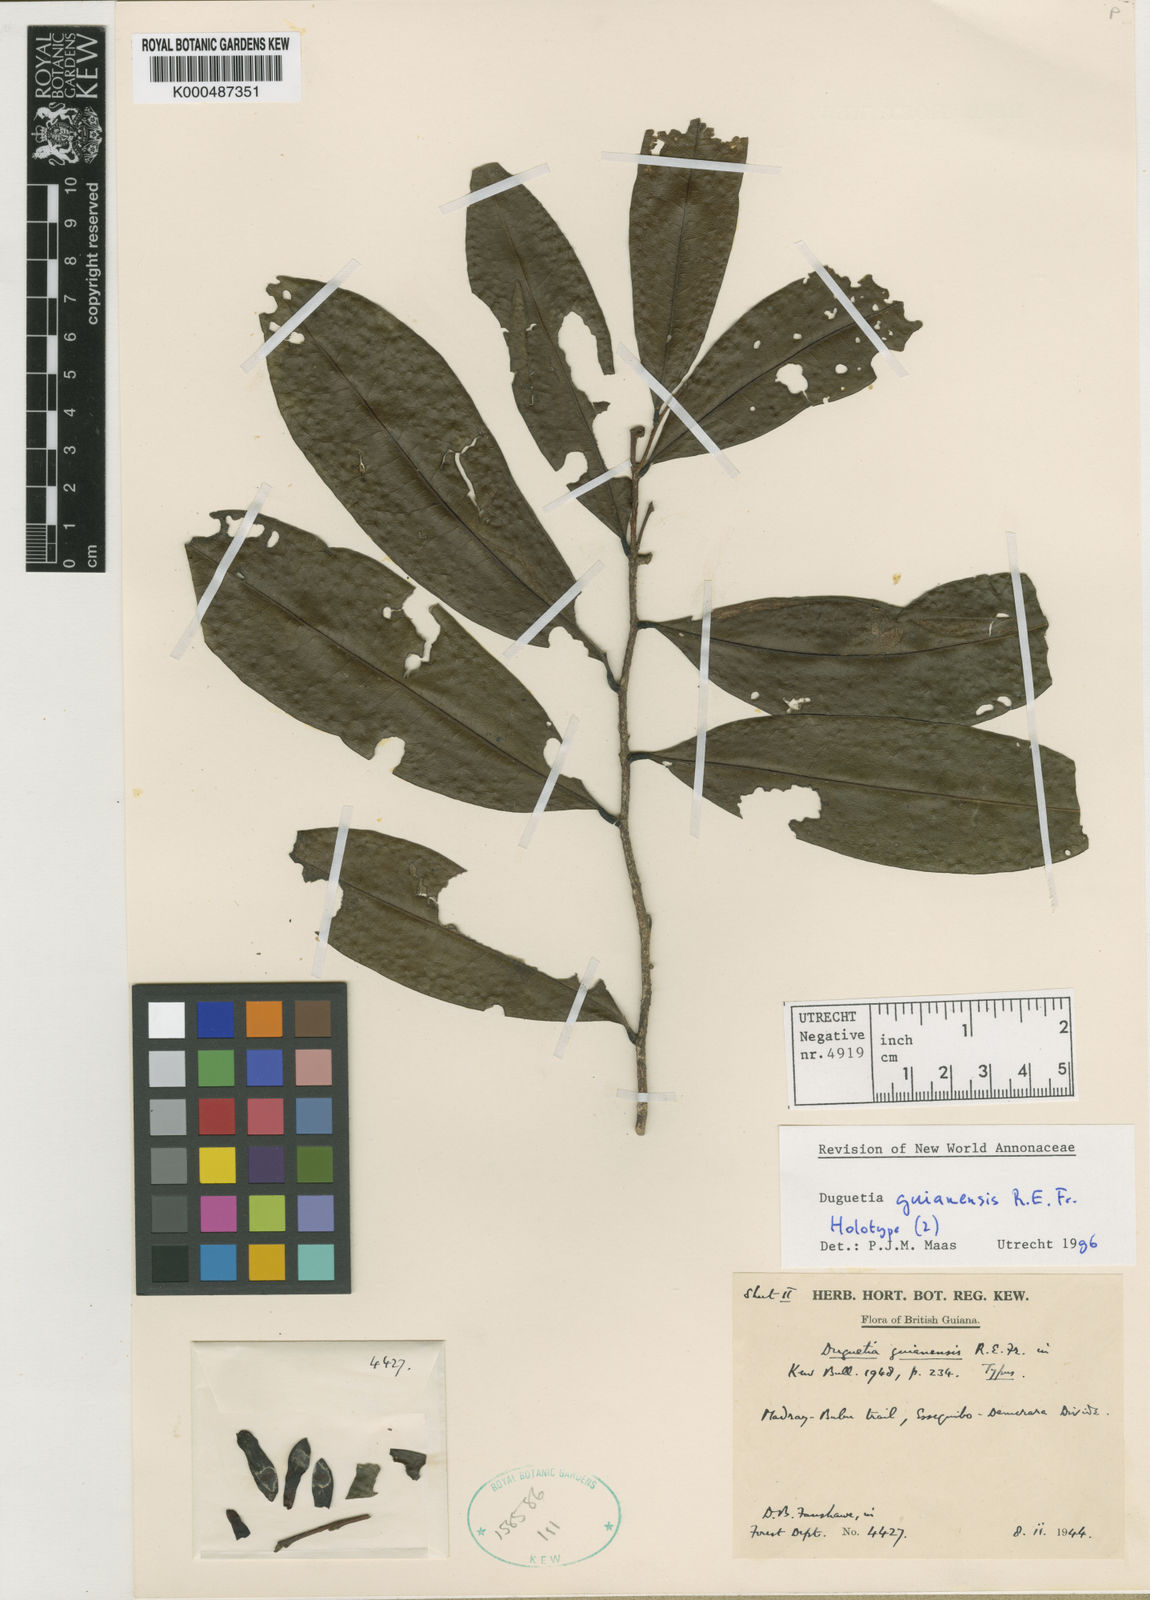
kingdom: Plantae
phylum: Tracheophyta
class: Magnoliopsida
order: Magnoliales
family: Annonaceae
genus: Duguetia
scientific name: Duguetia guianensis
